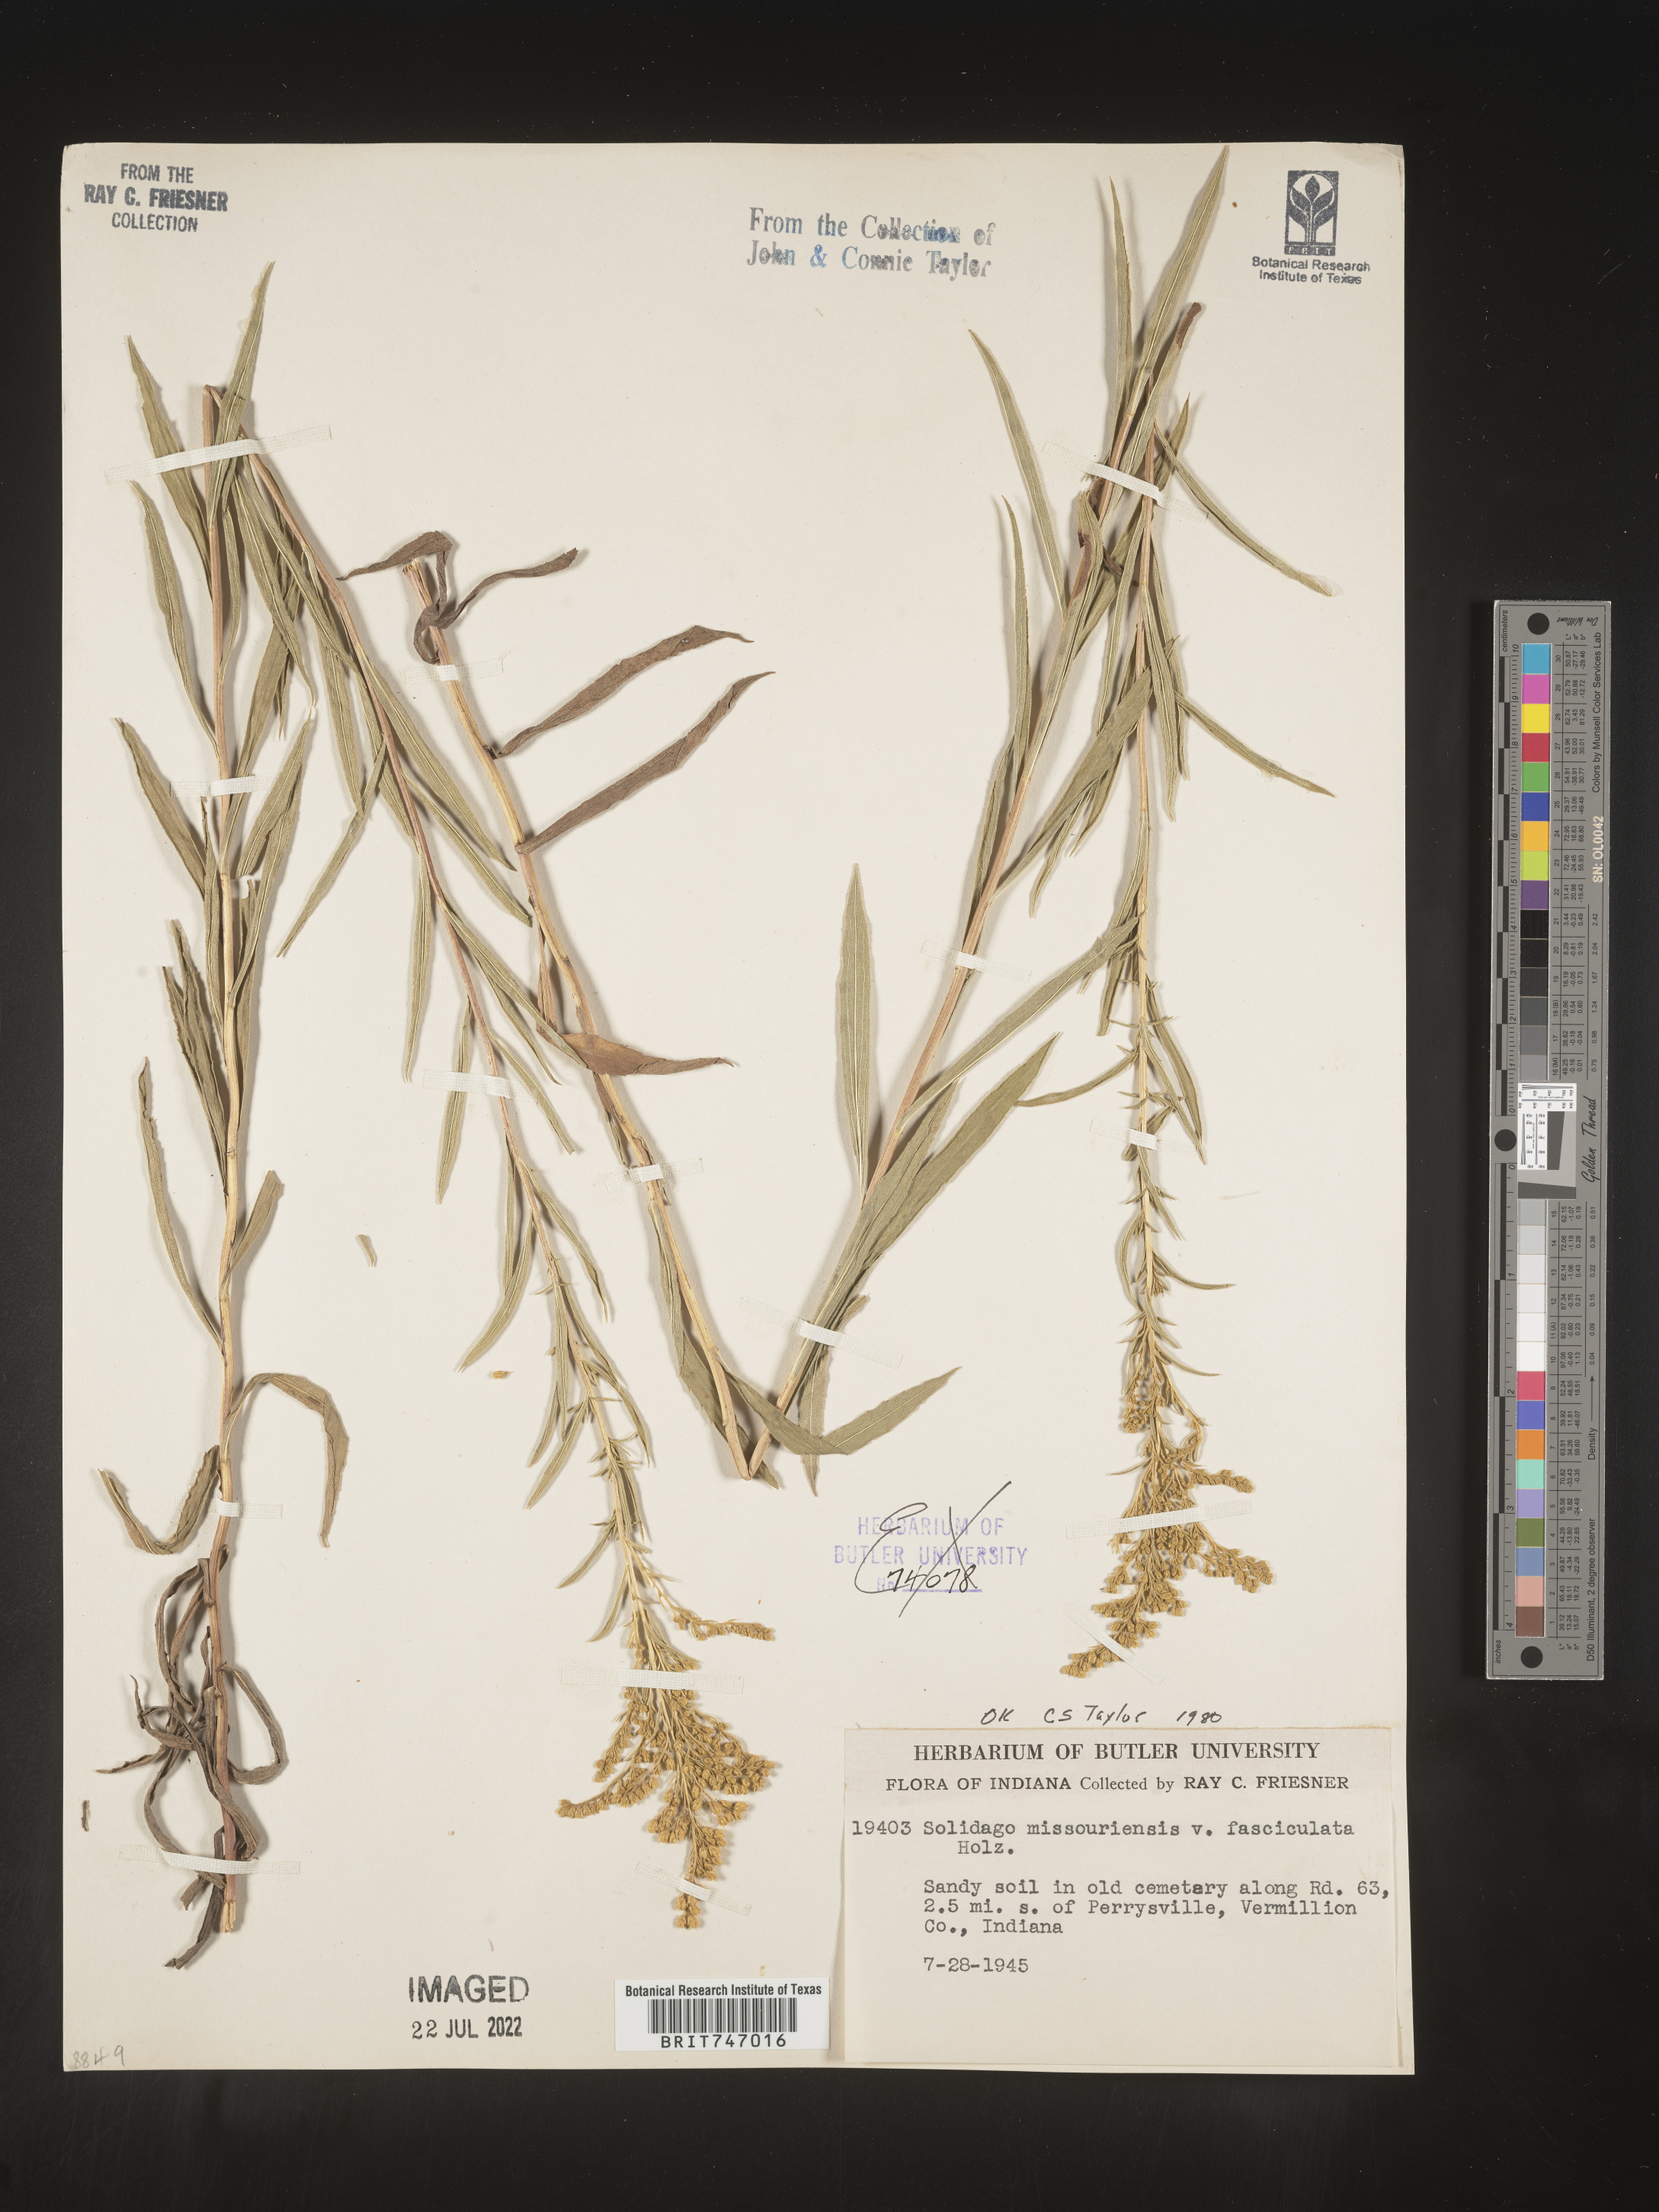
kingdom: Plantae
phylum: Tracheophyta
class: Magnoliopsida
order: Asterales
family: Asteraceae
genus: Solidago
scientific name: Solidago missouriensis
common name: Prairie goldenrod
